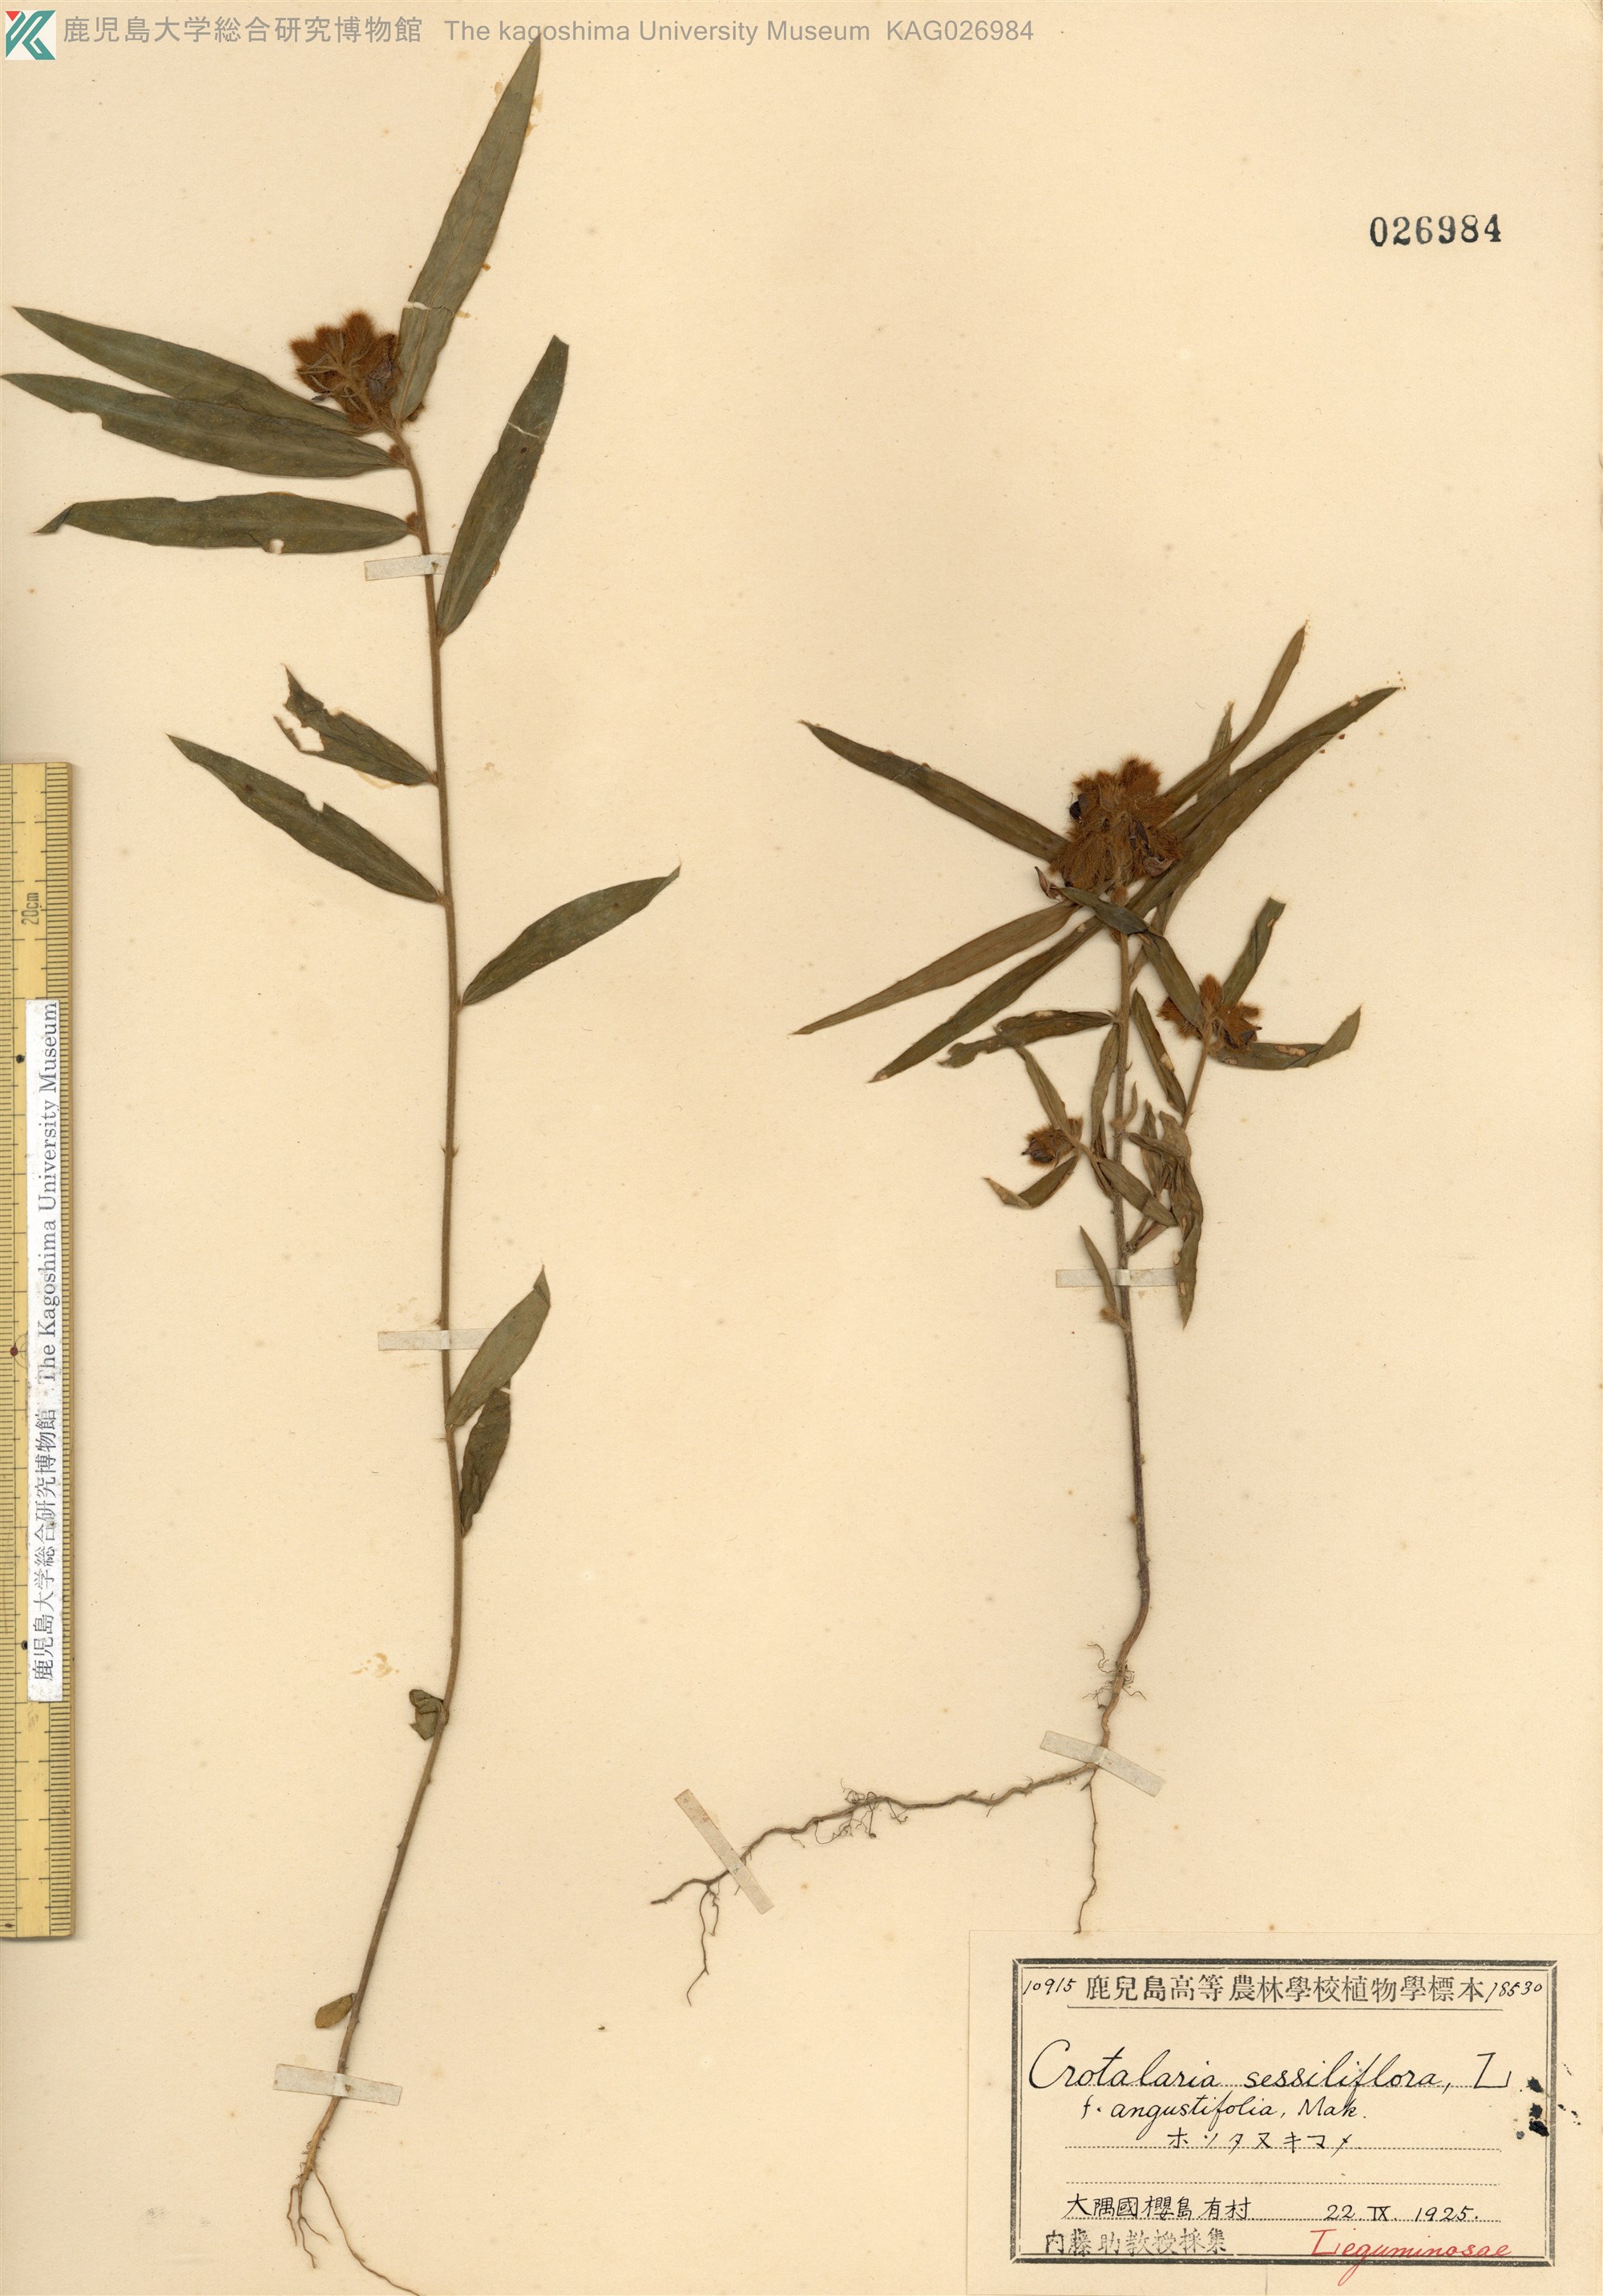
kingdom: Plantae
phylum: Tracheophyta
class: Magnoliopsida
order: Fabales
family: Fabaceae
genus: Crotalaria
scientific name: Crotalaria sessiliflora
